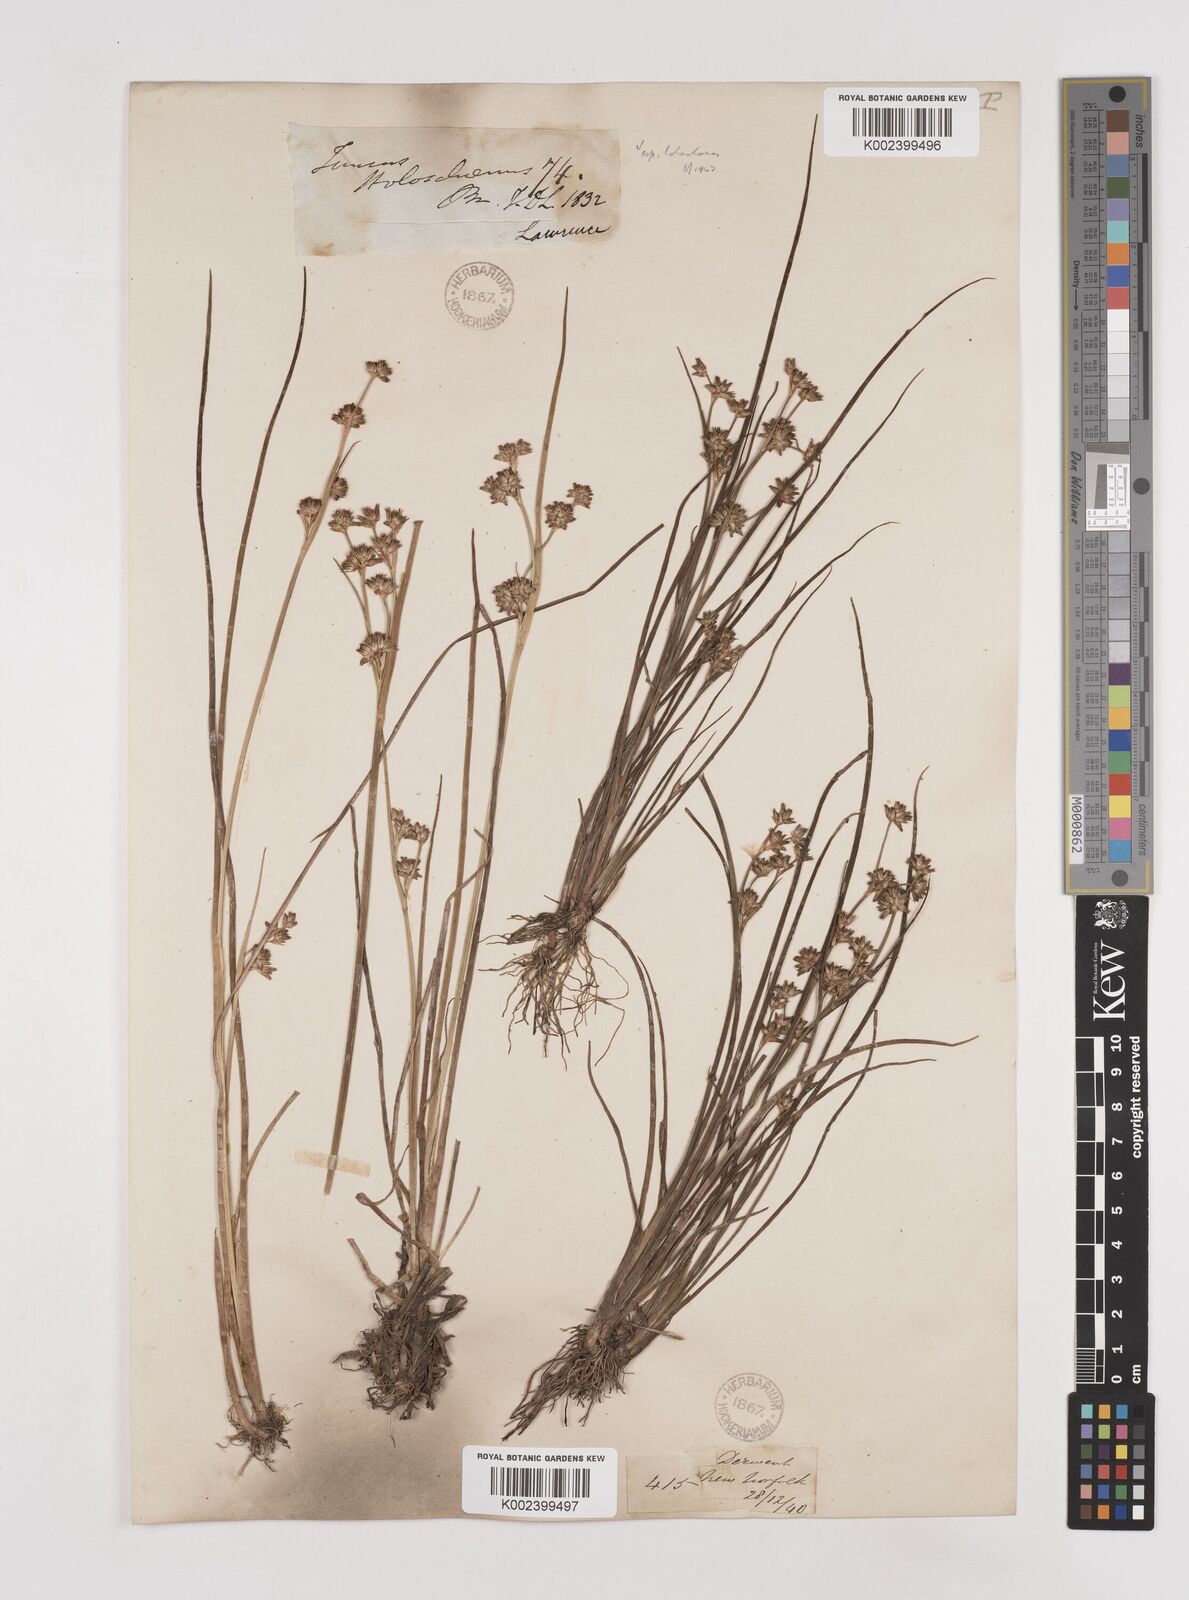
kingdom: Plantae
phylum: Tracheophyta
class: Liliopsida
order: Poales
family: Juncaceae
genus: Juncus
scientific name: Juncus holoschoenus
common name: Joint-leaf rush
